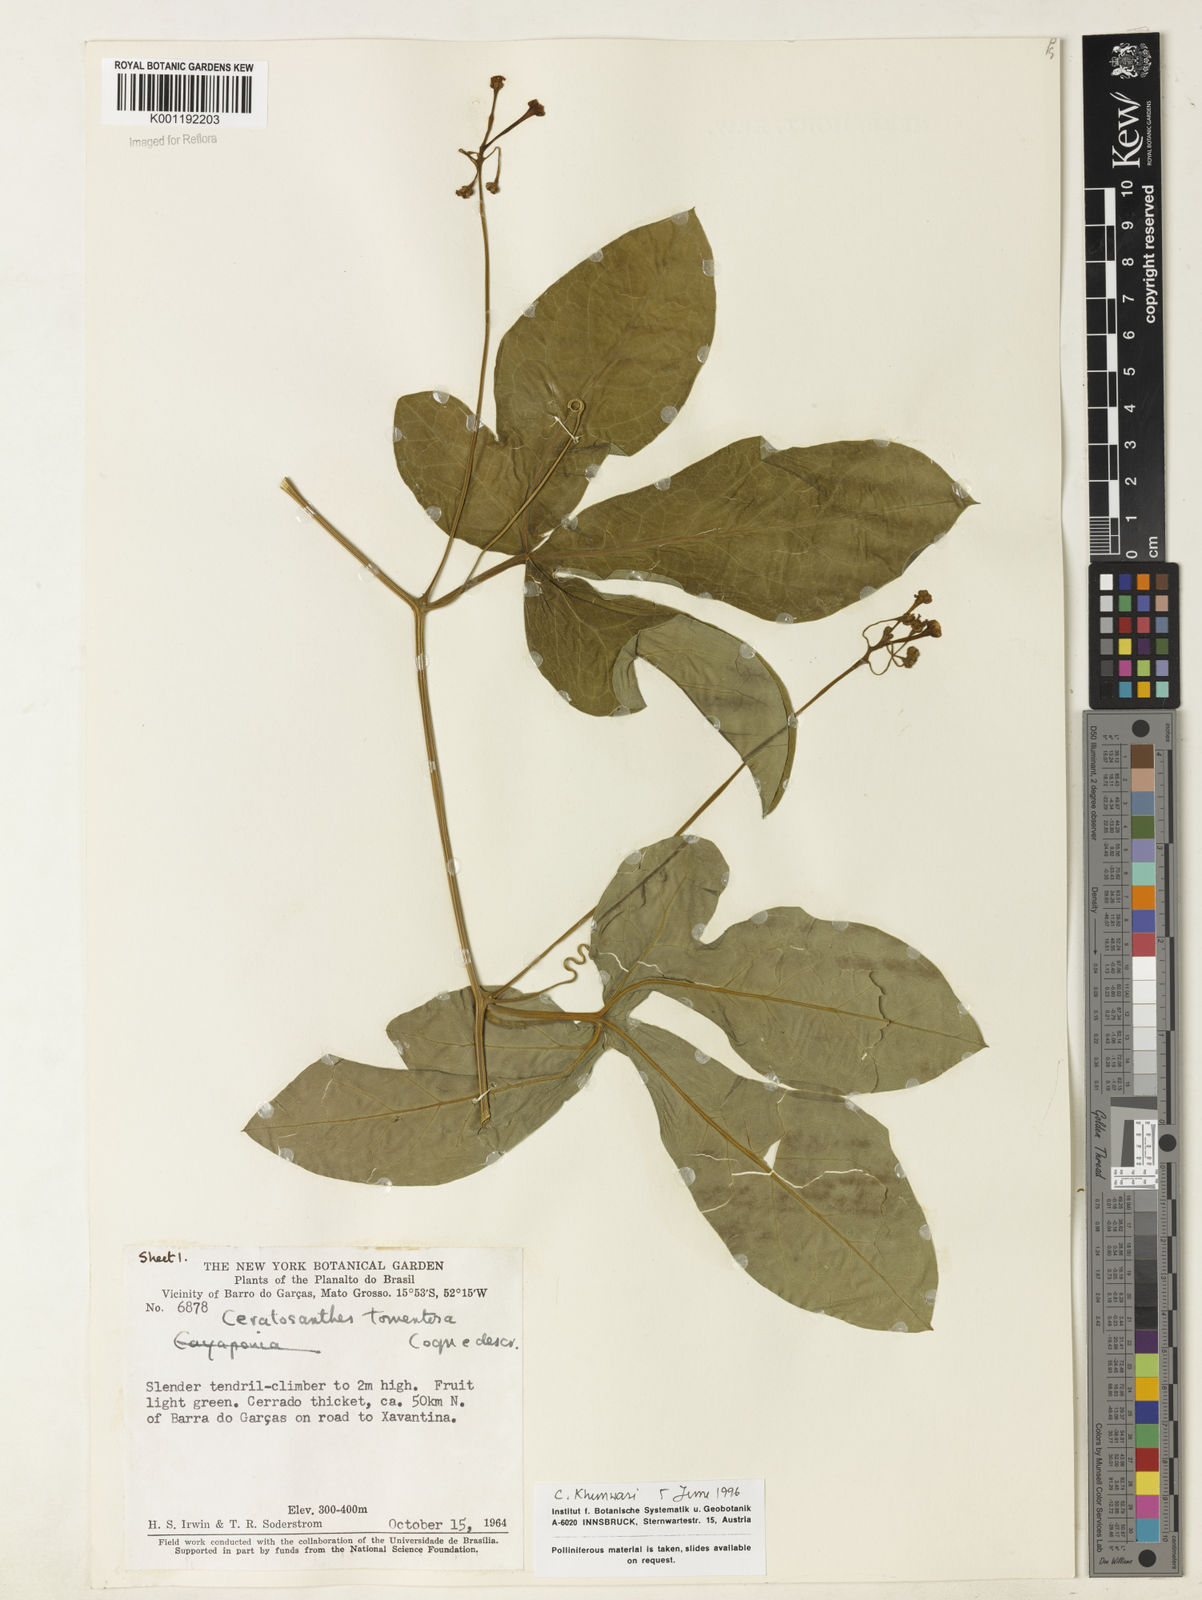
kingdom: Plantae
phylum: Tracheophyta
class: Magnoliopsida
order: Cucurbitales
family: Cucurbitaceae
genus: Ceratosanthes
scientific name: Ceratosanthes tomentosa
